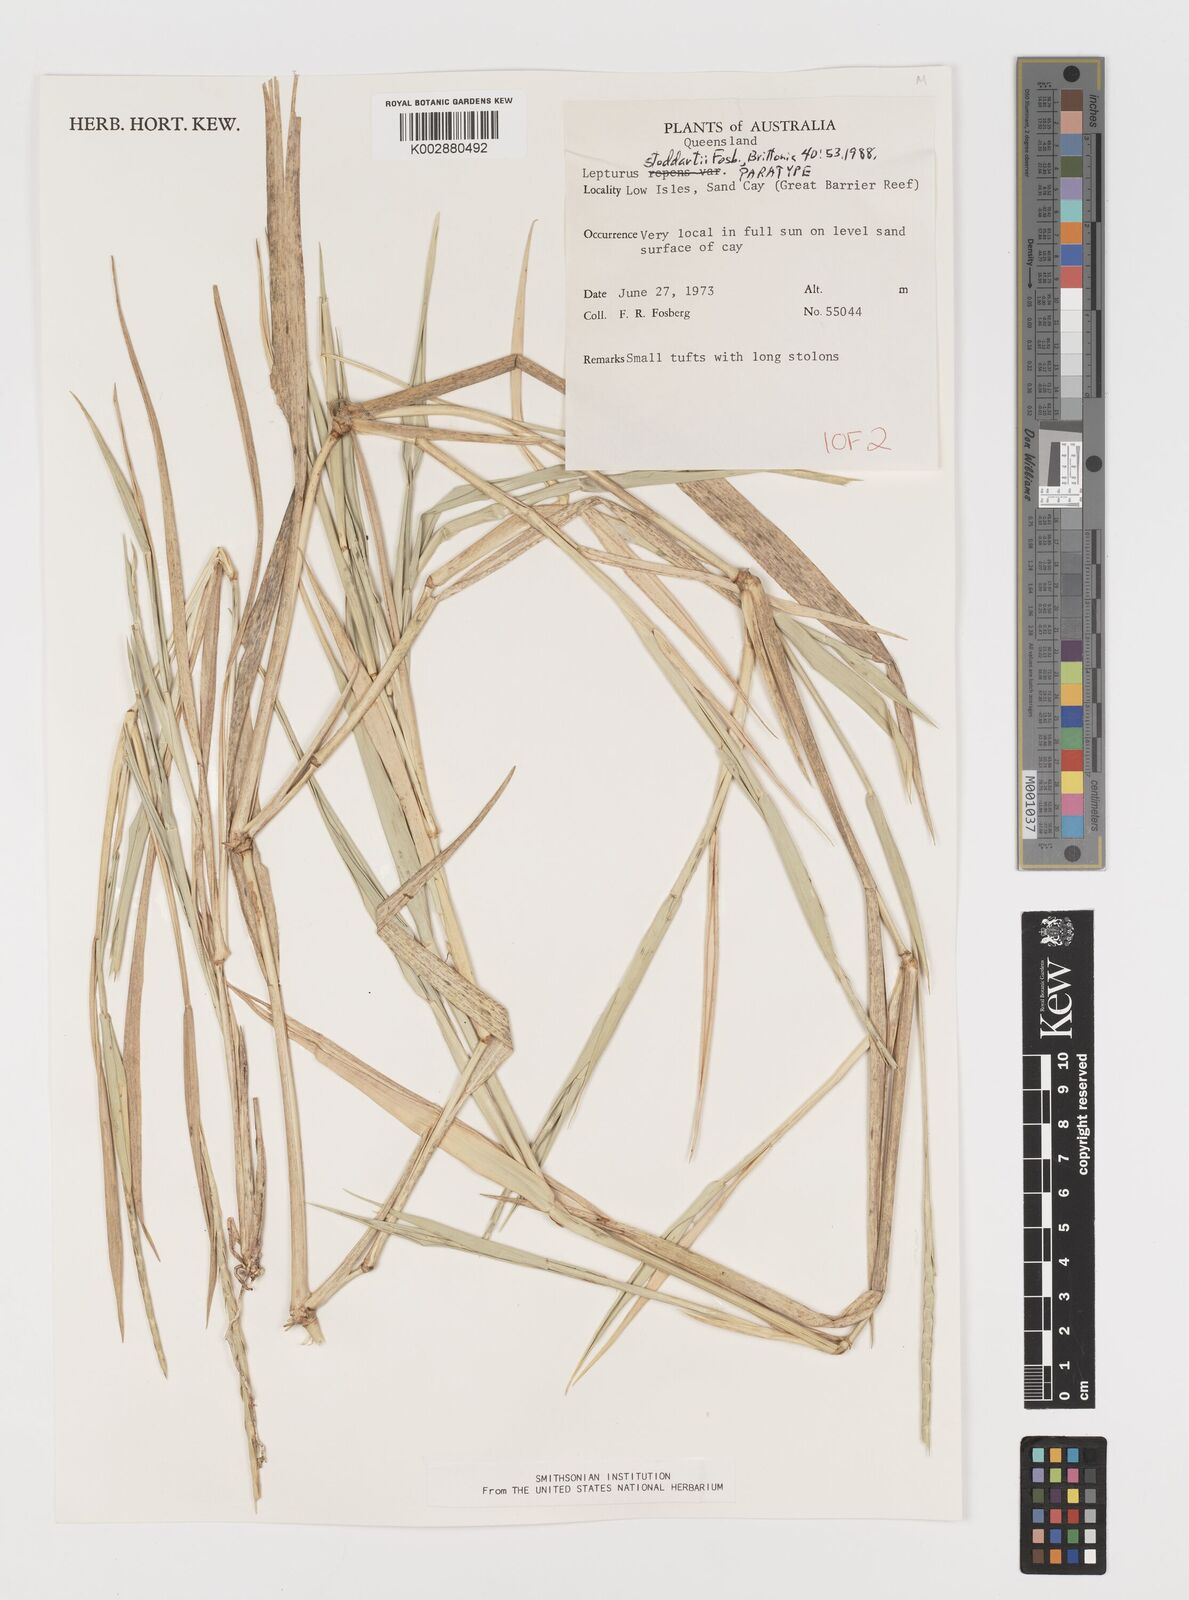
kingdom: Plantae
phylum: Tracheophyta
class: Liliopsida
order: Poales
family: Poaceae
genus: Lepturus
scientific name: Lepturus repens
